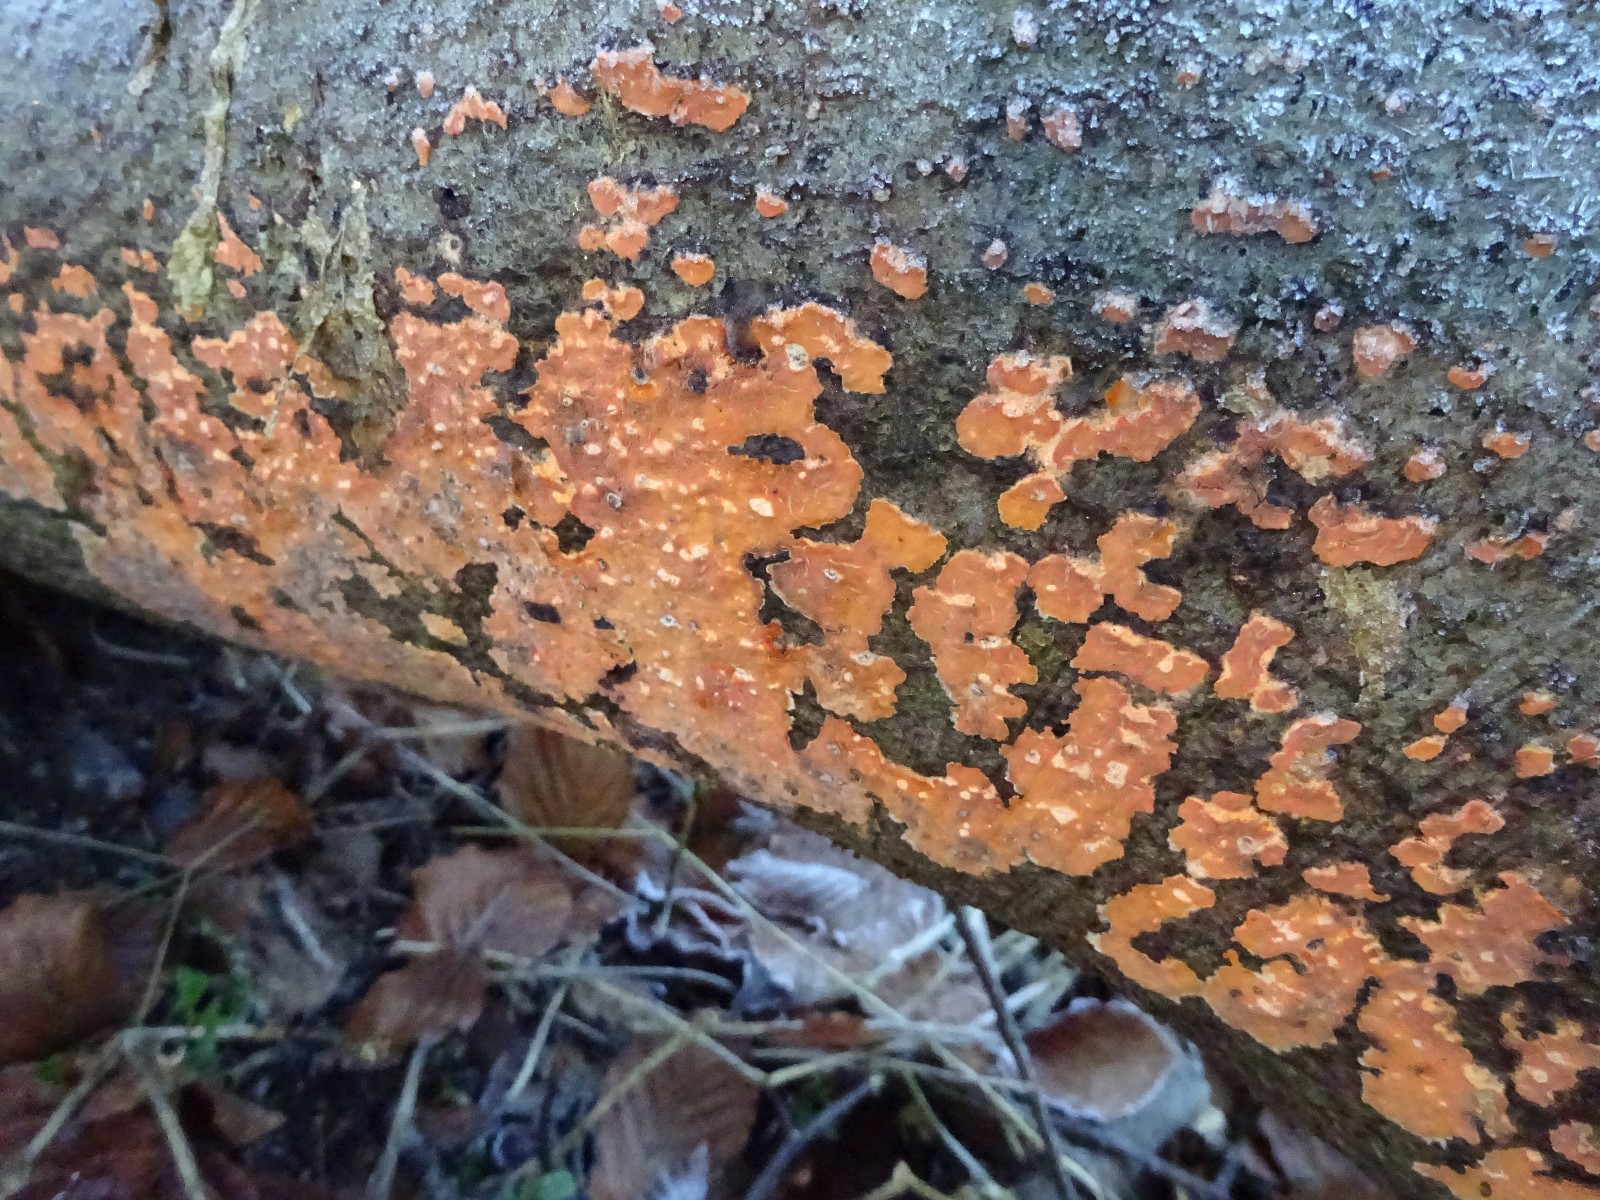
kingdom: Fungi
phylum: Basidiomycota
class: Agaricomycetes
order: Russulales
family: Peniophoraceae
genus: Peniophora
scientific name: Peniophora incarnata
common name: laksefarvet voksskind
